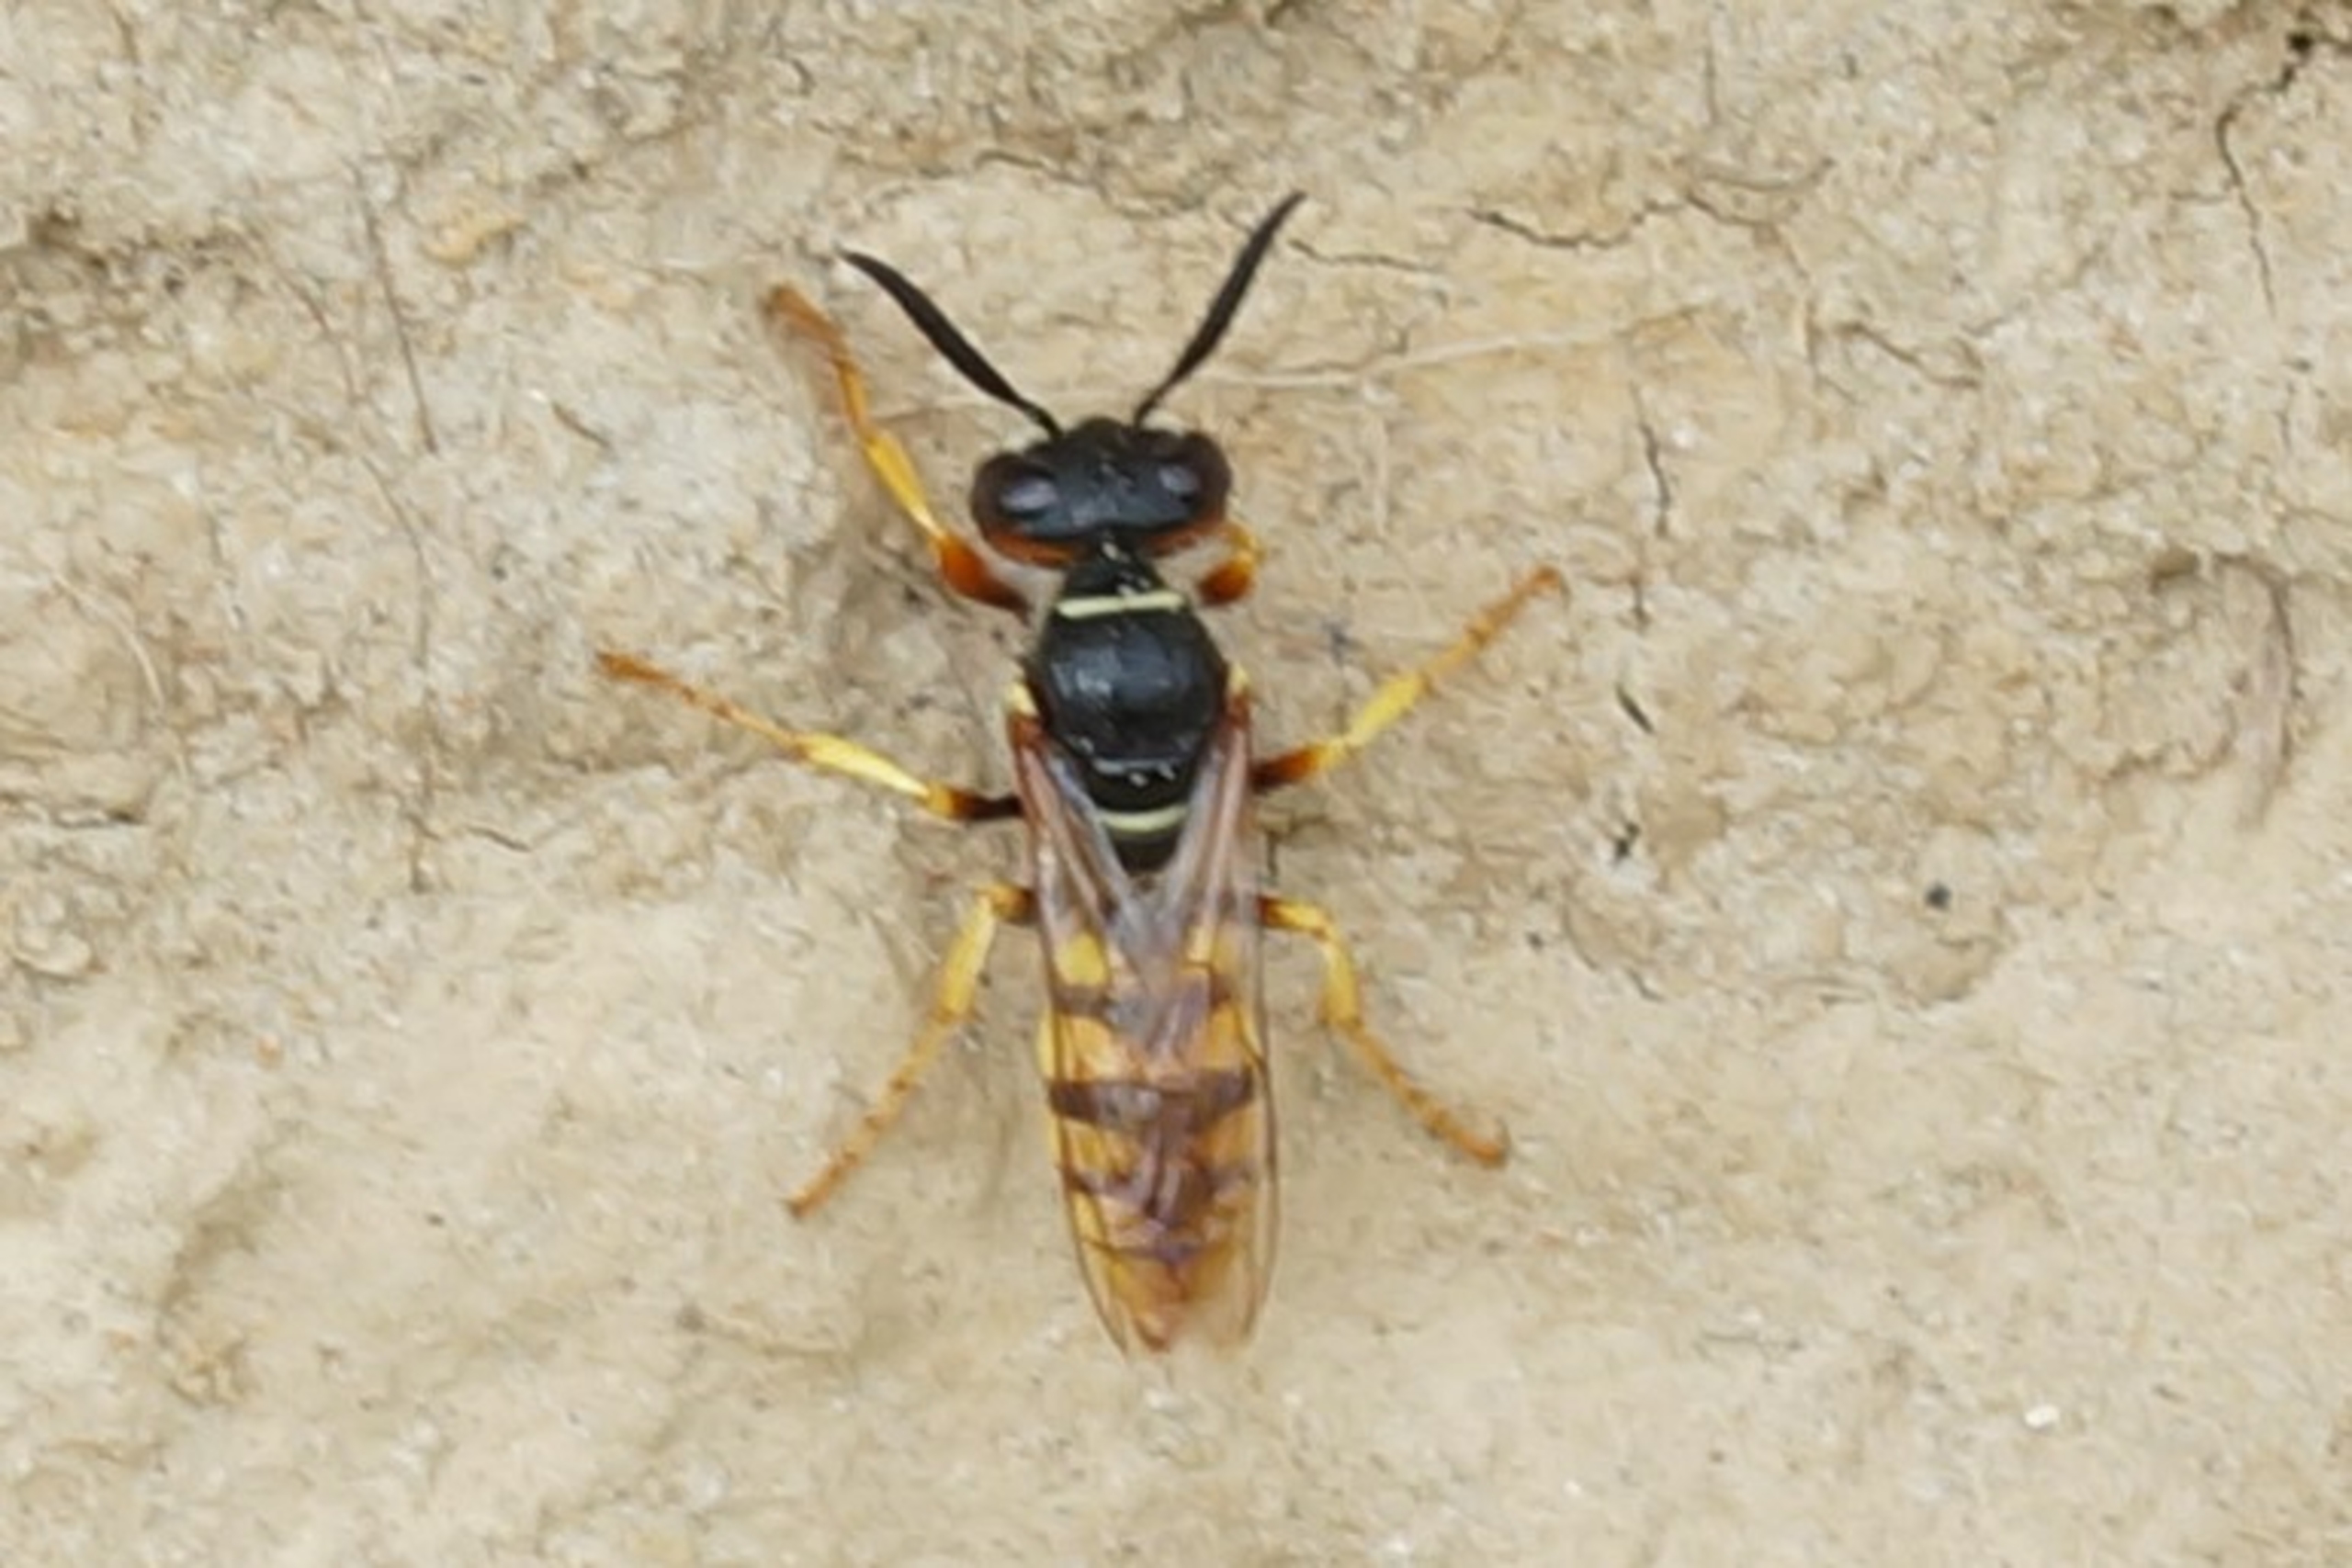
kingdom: Animalia
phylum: Arthropoda
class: Insecta
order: Hymenoptera
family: Crabronidae
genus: Philanthus
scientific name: Philanthus triangulum
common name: Biulv
